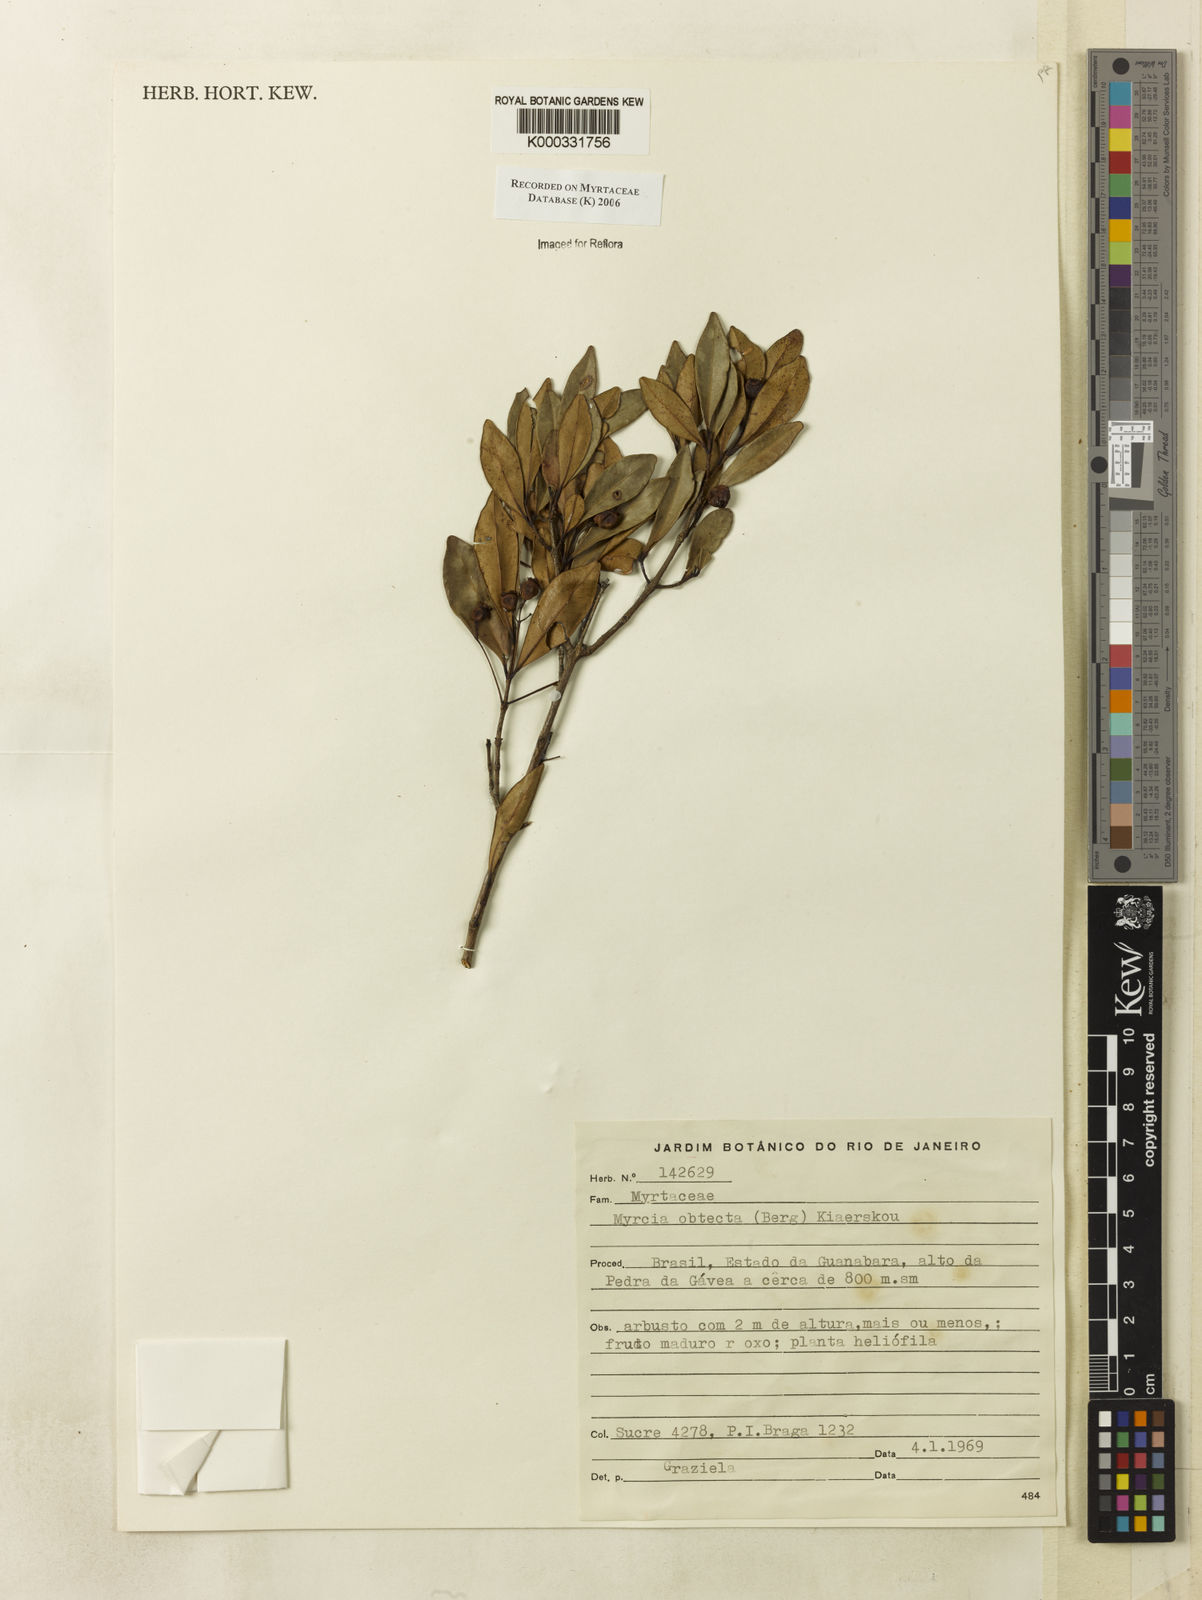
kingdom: Plantae
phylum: Tracheophyta
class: Magnoliopsida
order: Myrtales
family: Myrtaceae
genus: Myrcia
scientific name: Myrcia guianensis
